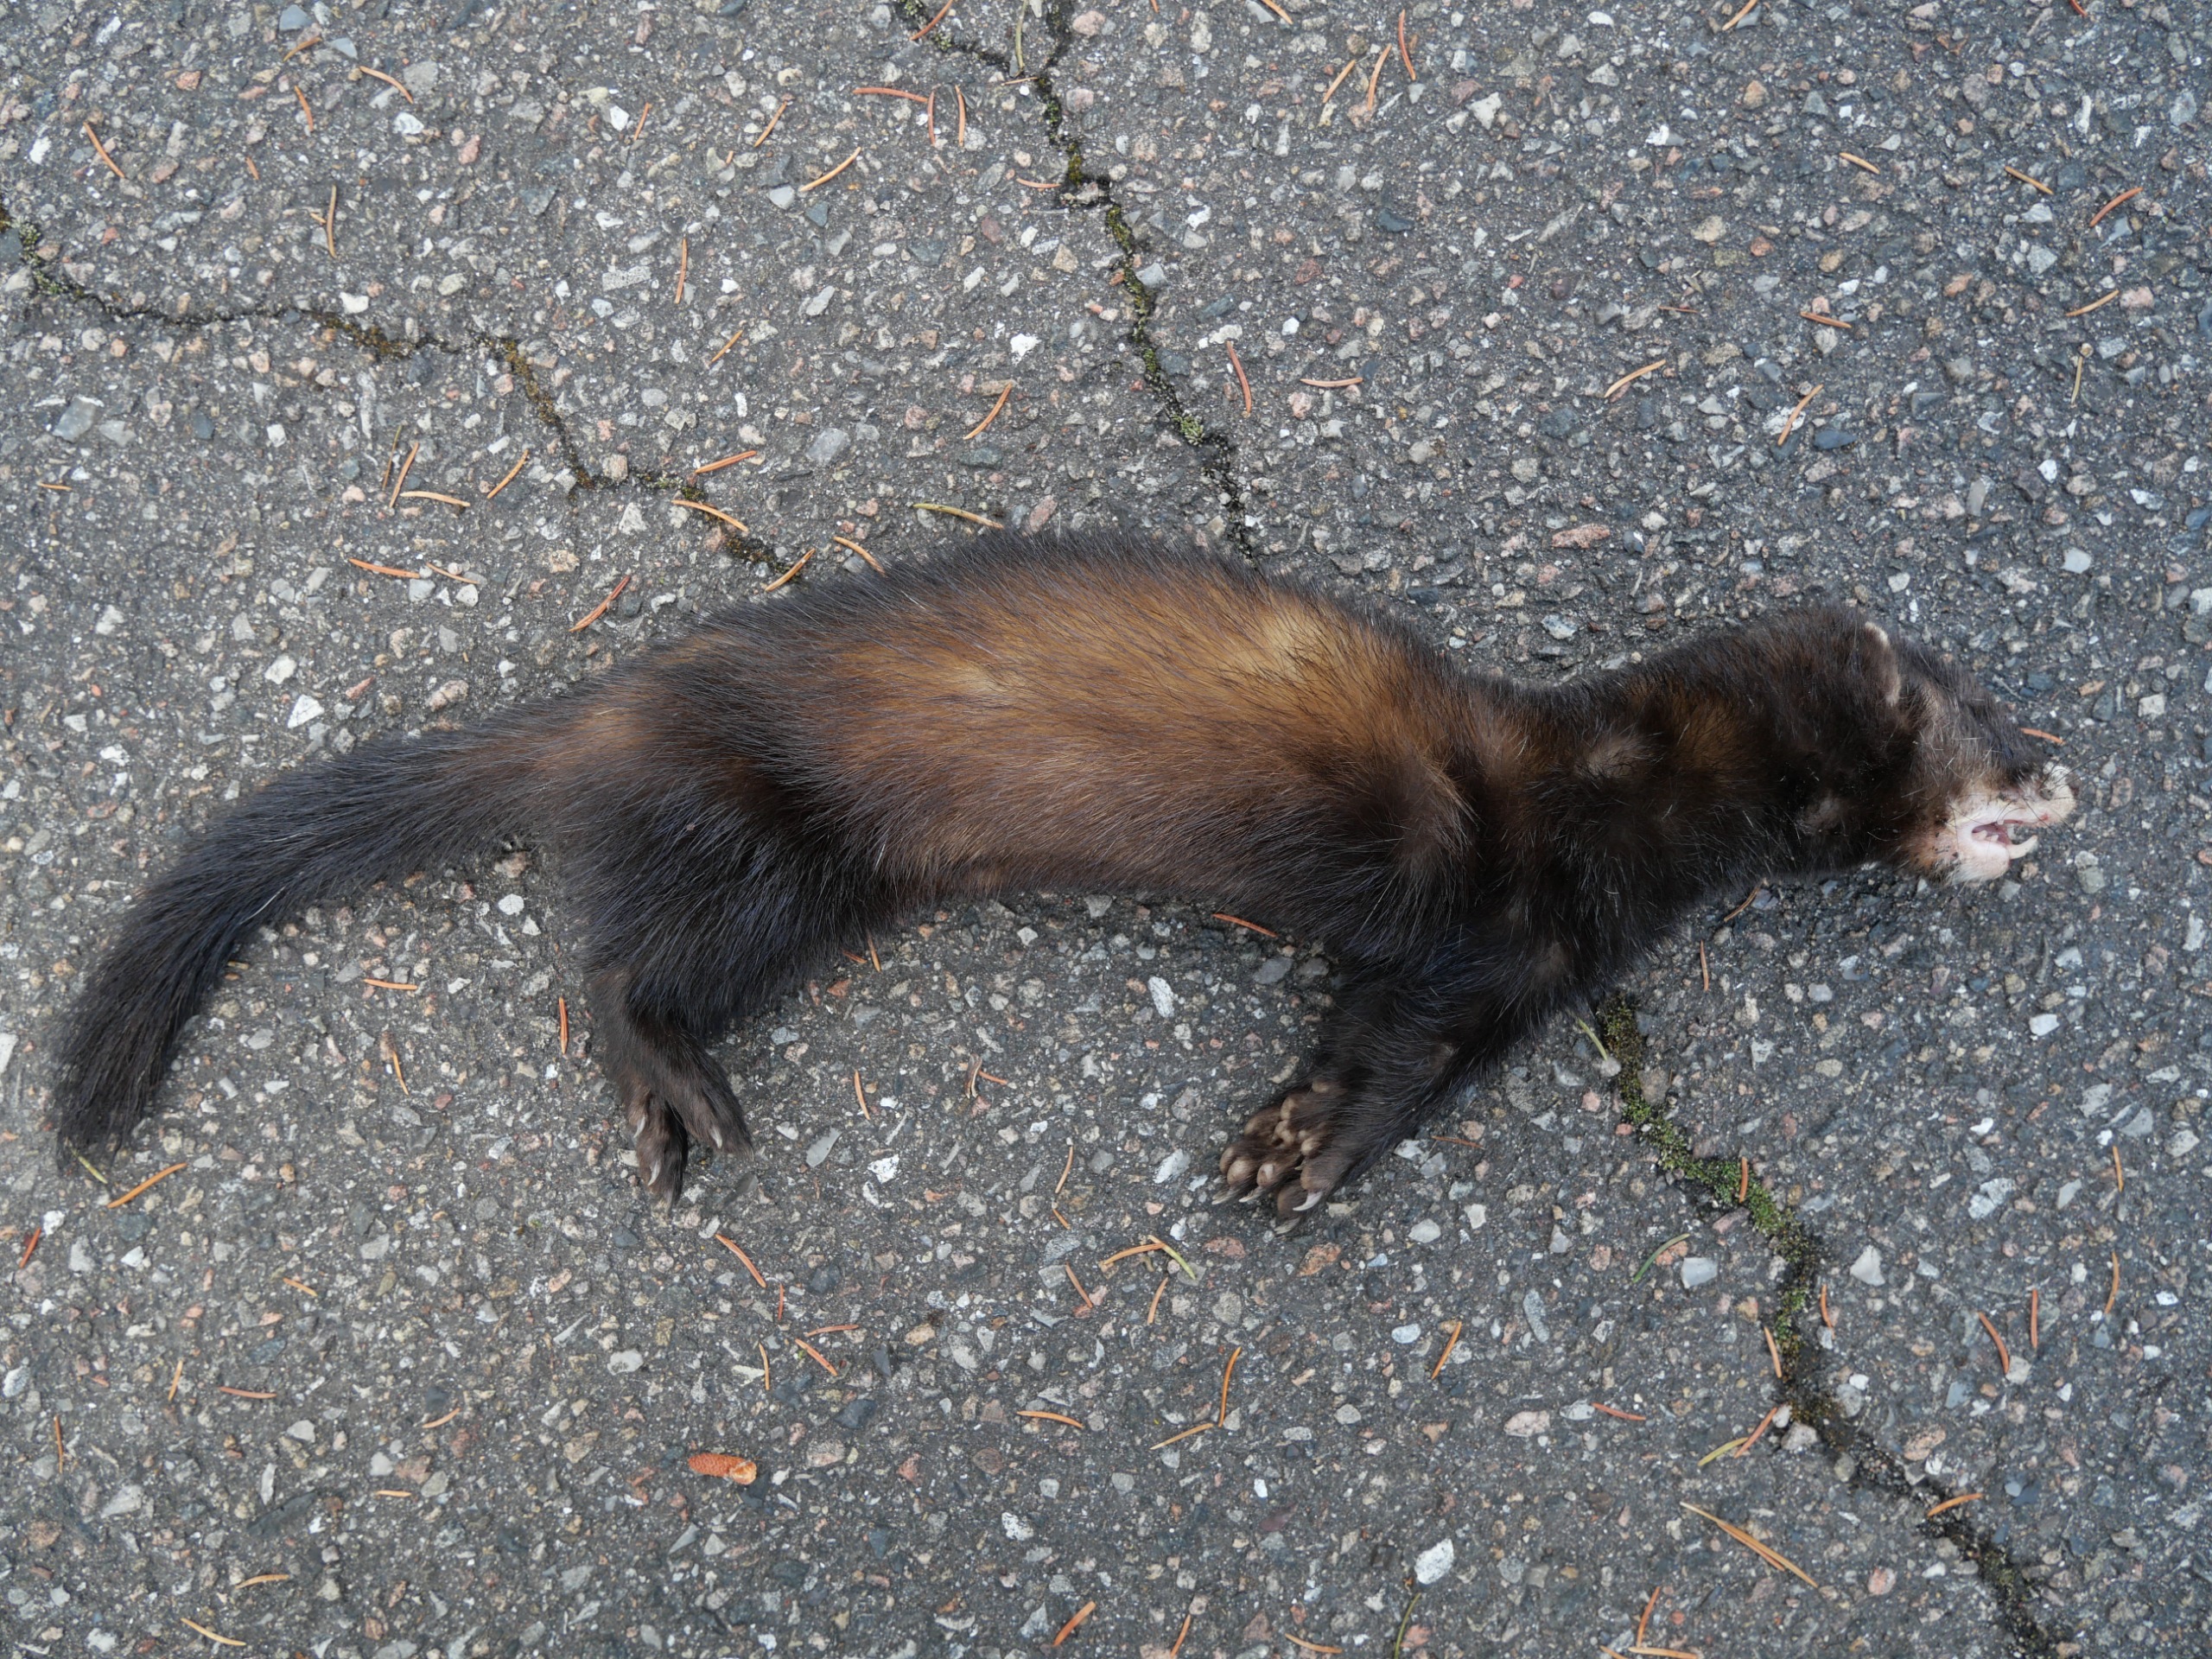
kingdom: Animalia
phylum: Chordata
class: Mammalia
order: Carnivora
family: Mustelidae
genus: Mustela
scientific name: Mustela putorius
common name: Ilder
